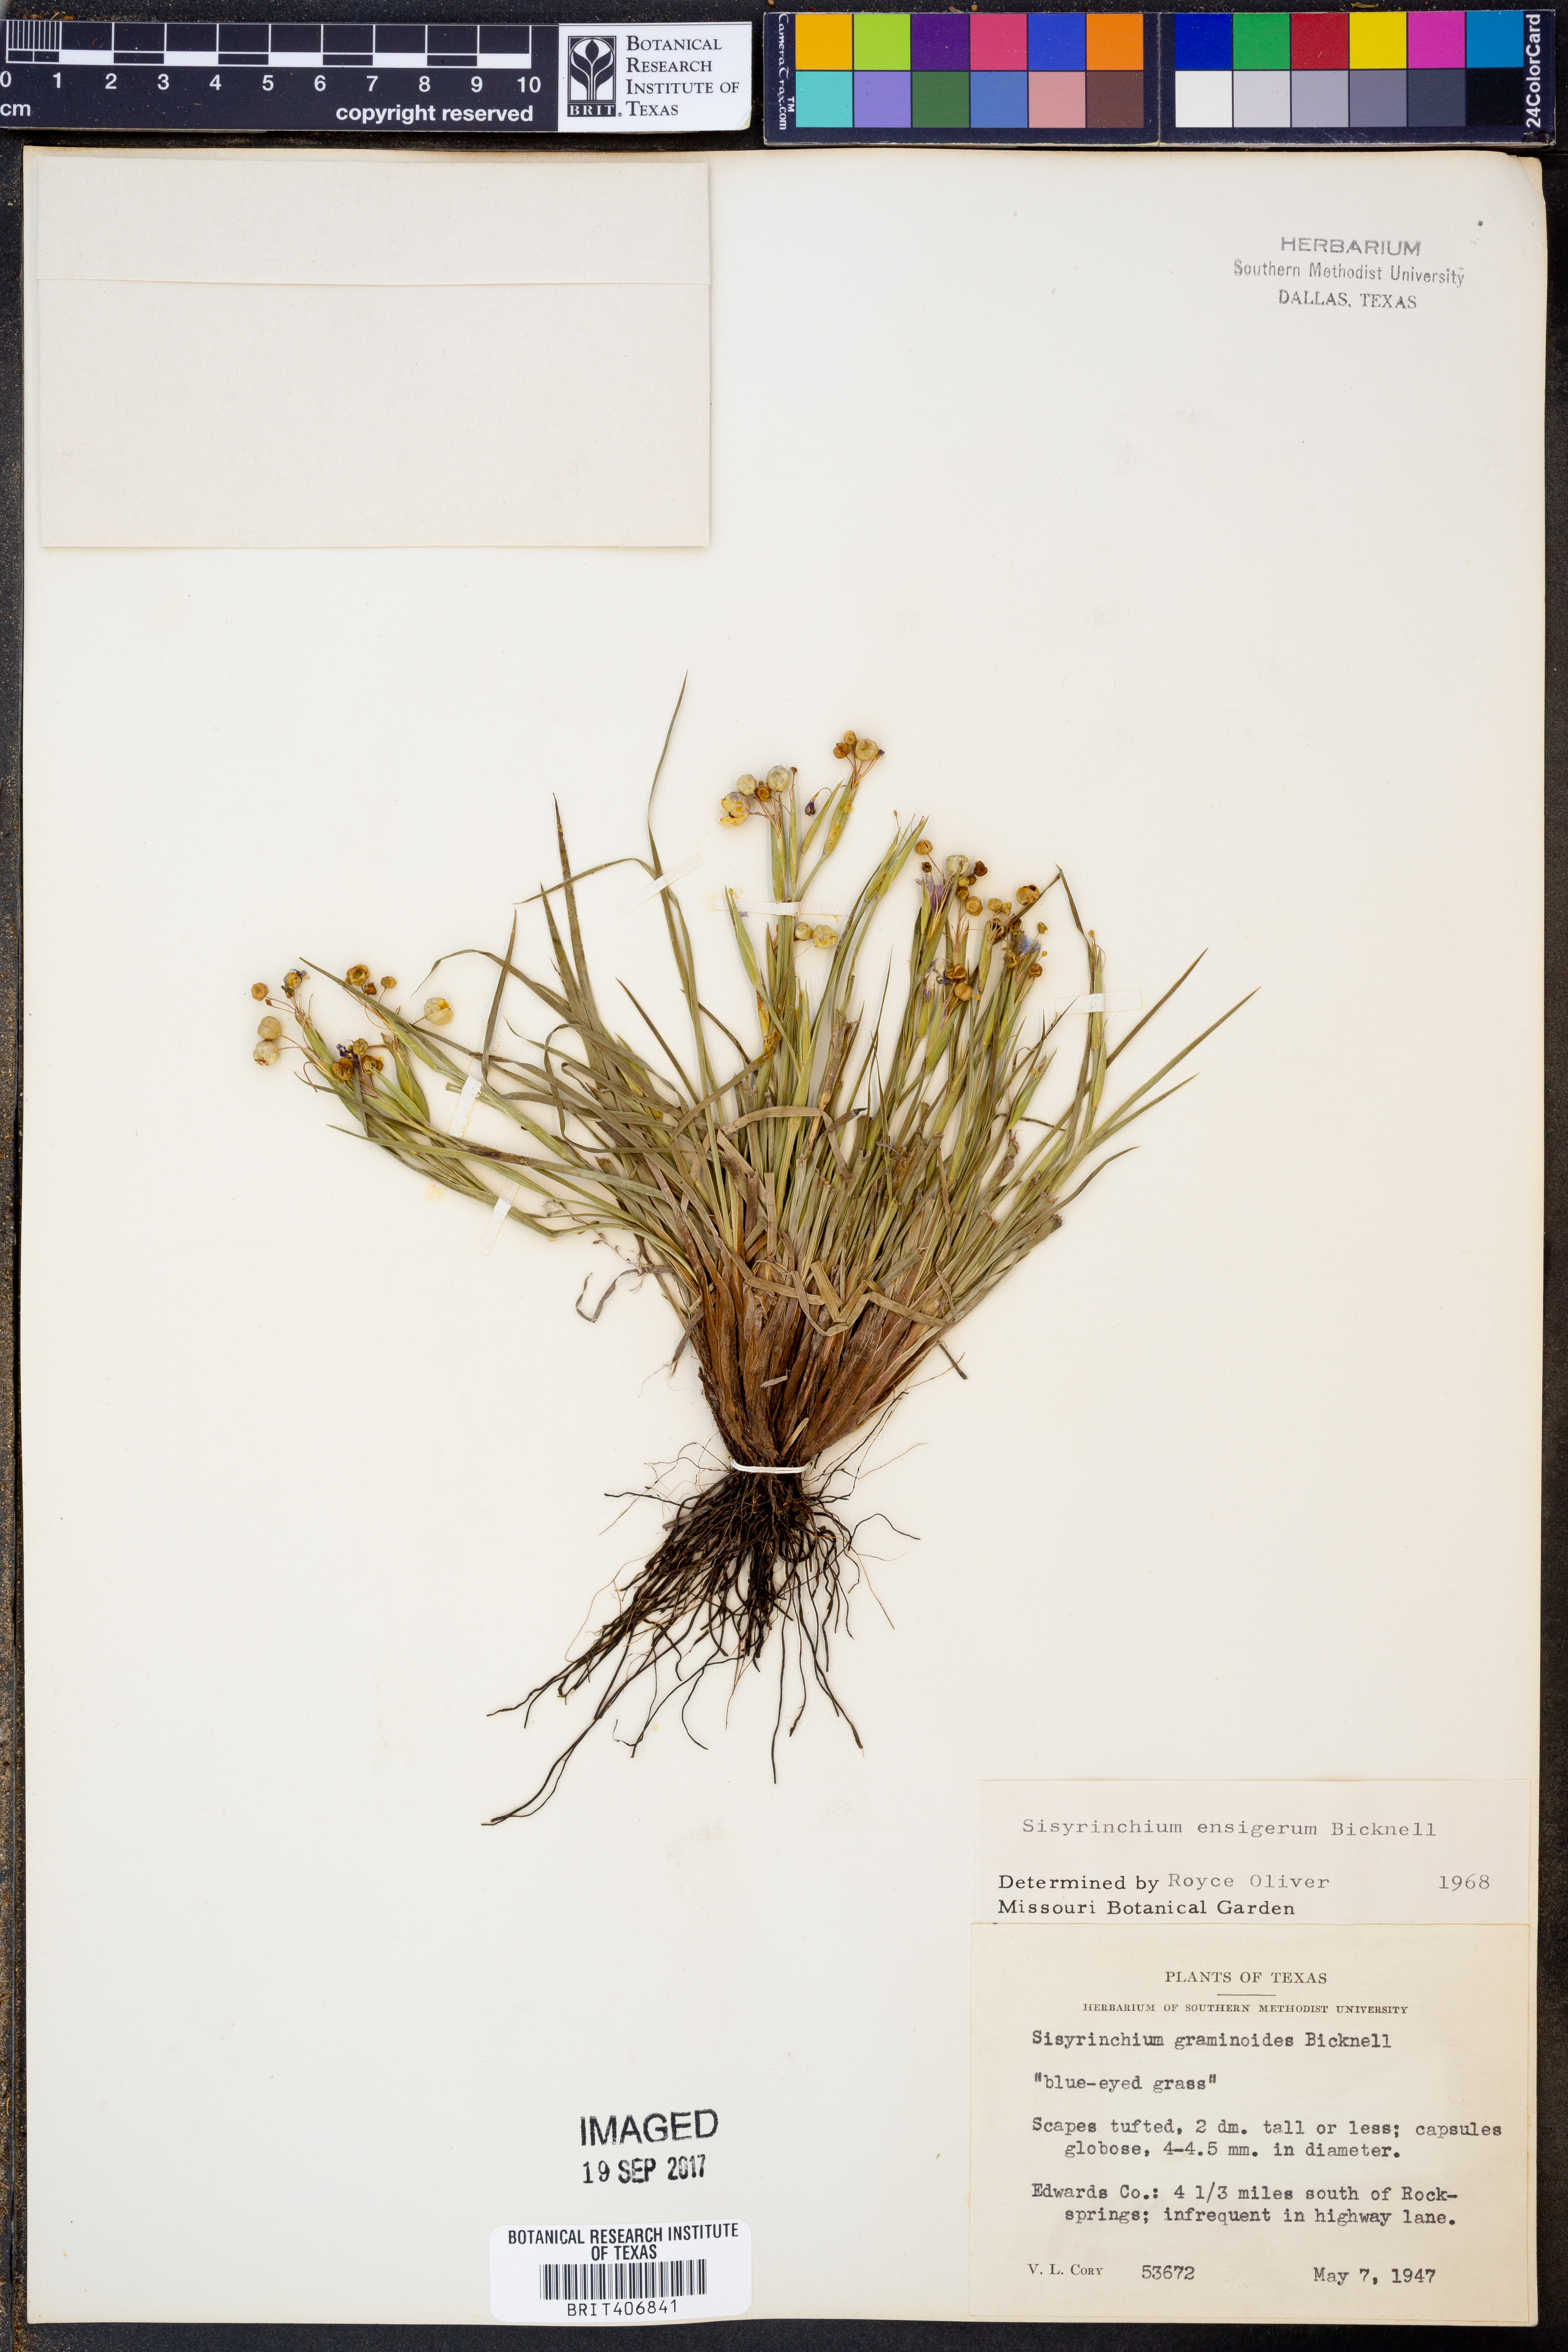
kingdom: Plantae
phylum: Tracheophyta
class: Liliopsida
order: Asparagales
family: Iridaceae
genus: Sisyrinchium
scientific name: Sisyrinchium ensigerum
